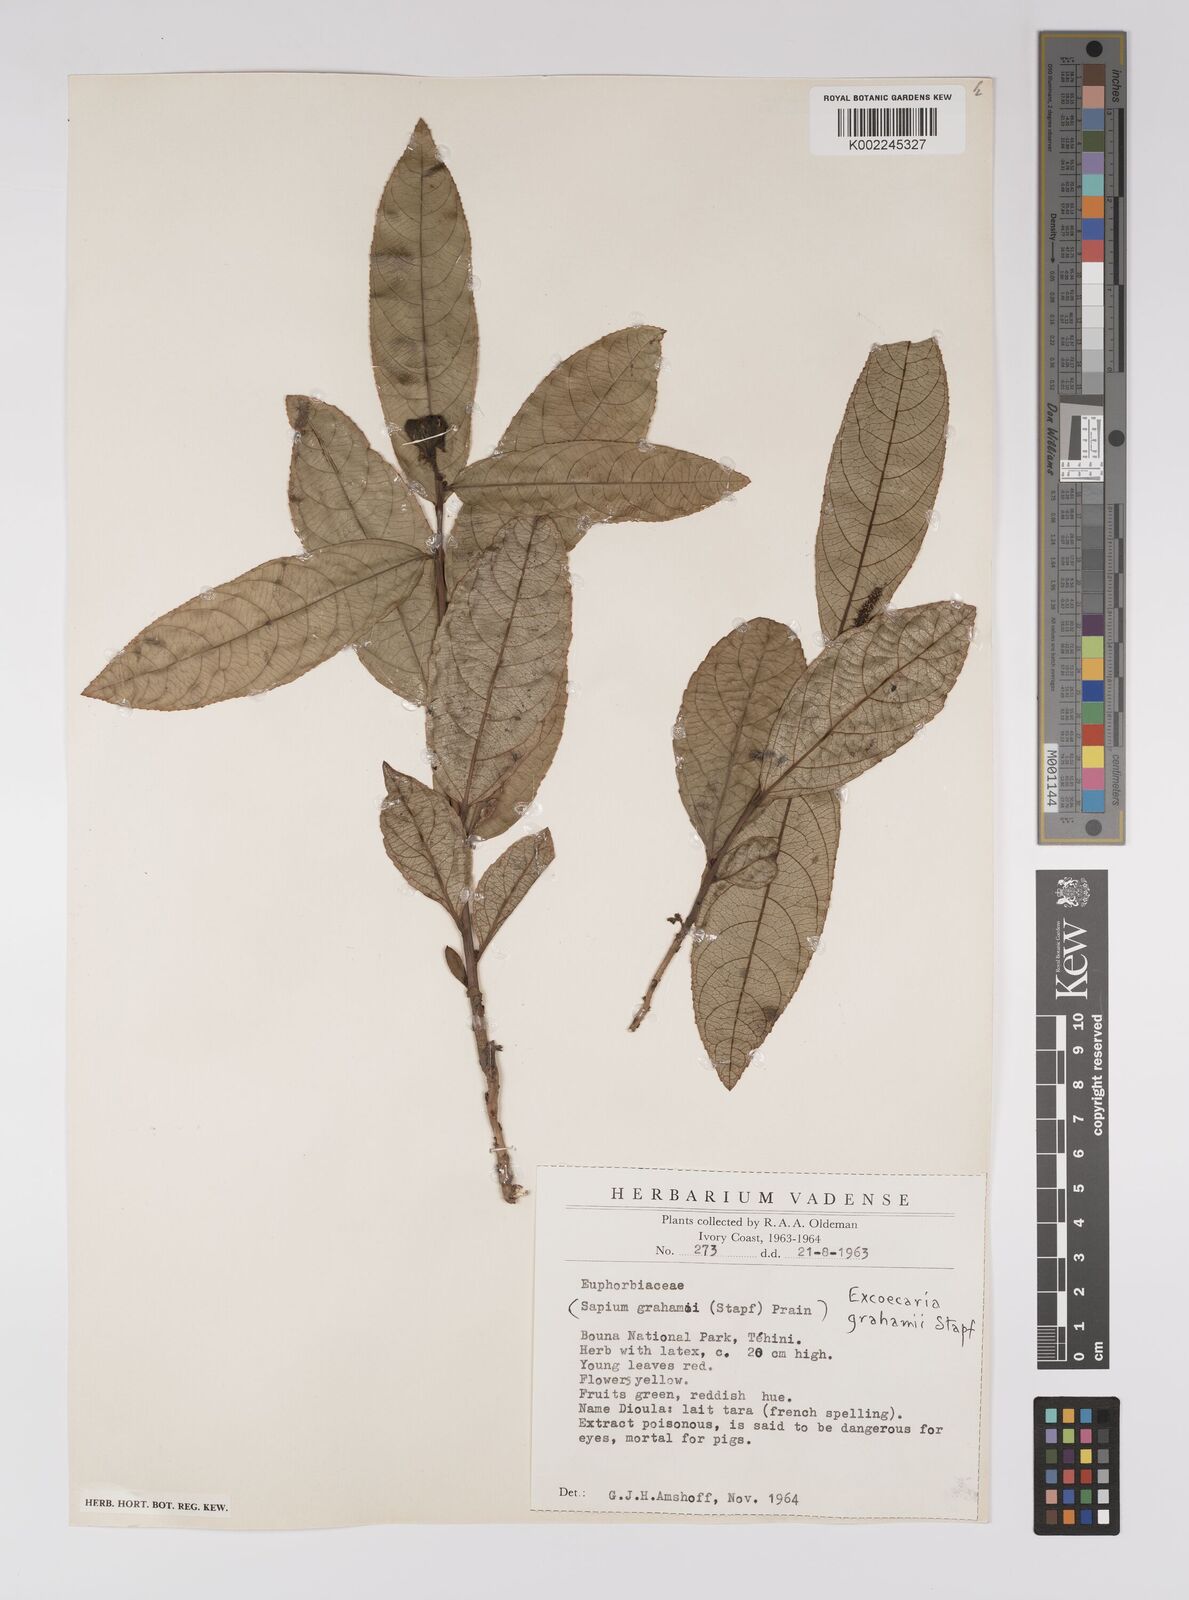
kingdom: Plantae
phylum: Tracheophyta
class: Magnoliopsida
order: Malpighiales
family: Euphorbiaceae
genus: Excoecaria
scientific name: Excoecaria grahamii
